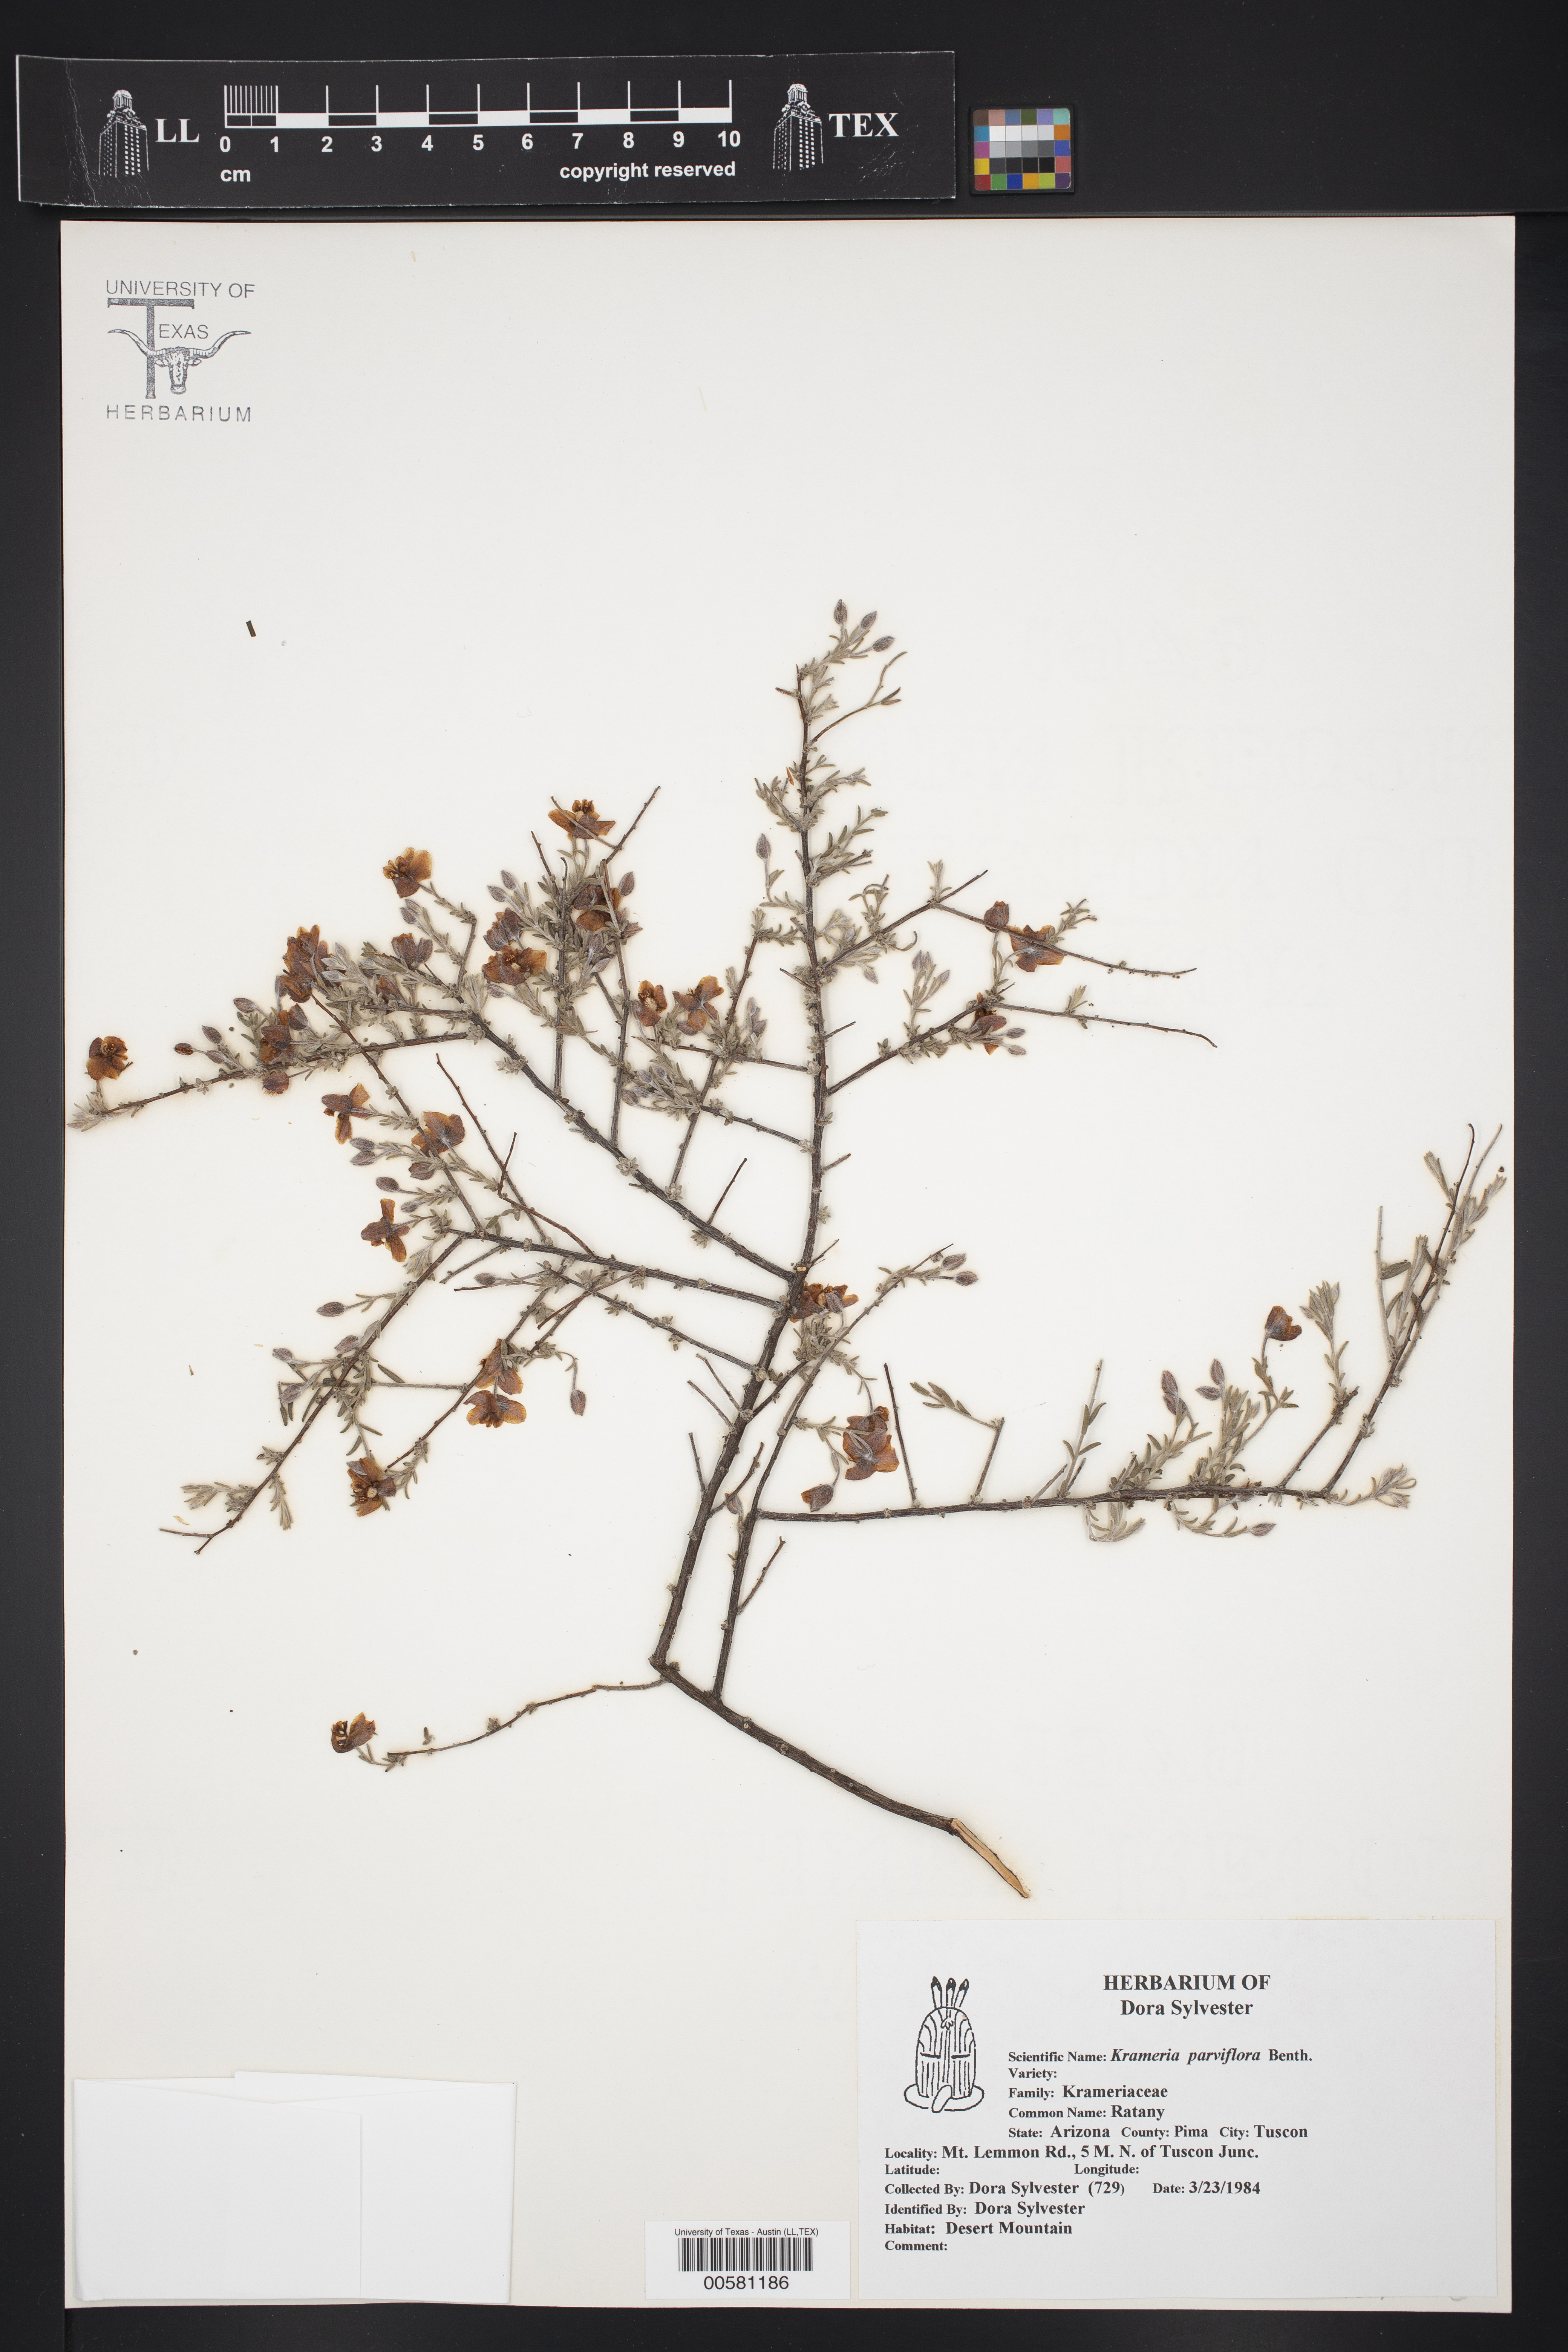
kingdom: Plantae
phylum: Tracheophyta
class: Magnoliopsida
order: Zygophyllales
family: Krameriaceae
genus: Krameria
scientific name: Krameria erecta
